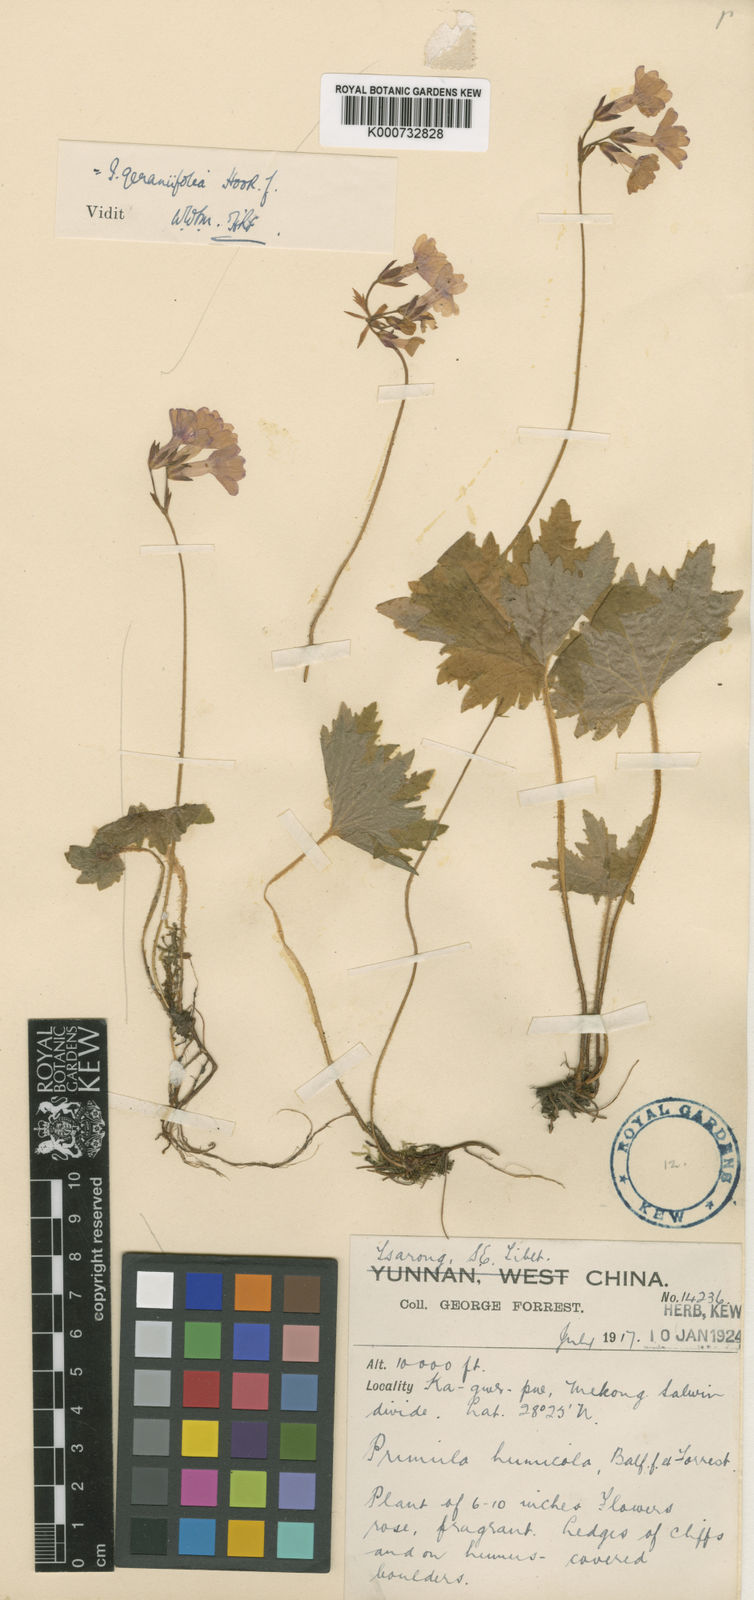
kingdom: Plantae
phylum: Tracheophyta
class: Magnoliopsida
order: Ericales
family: Primulaceae
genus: Primula
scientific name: Primula heucherifolia
